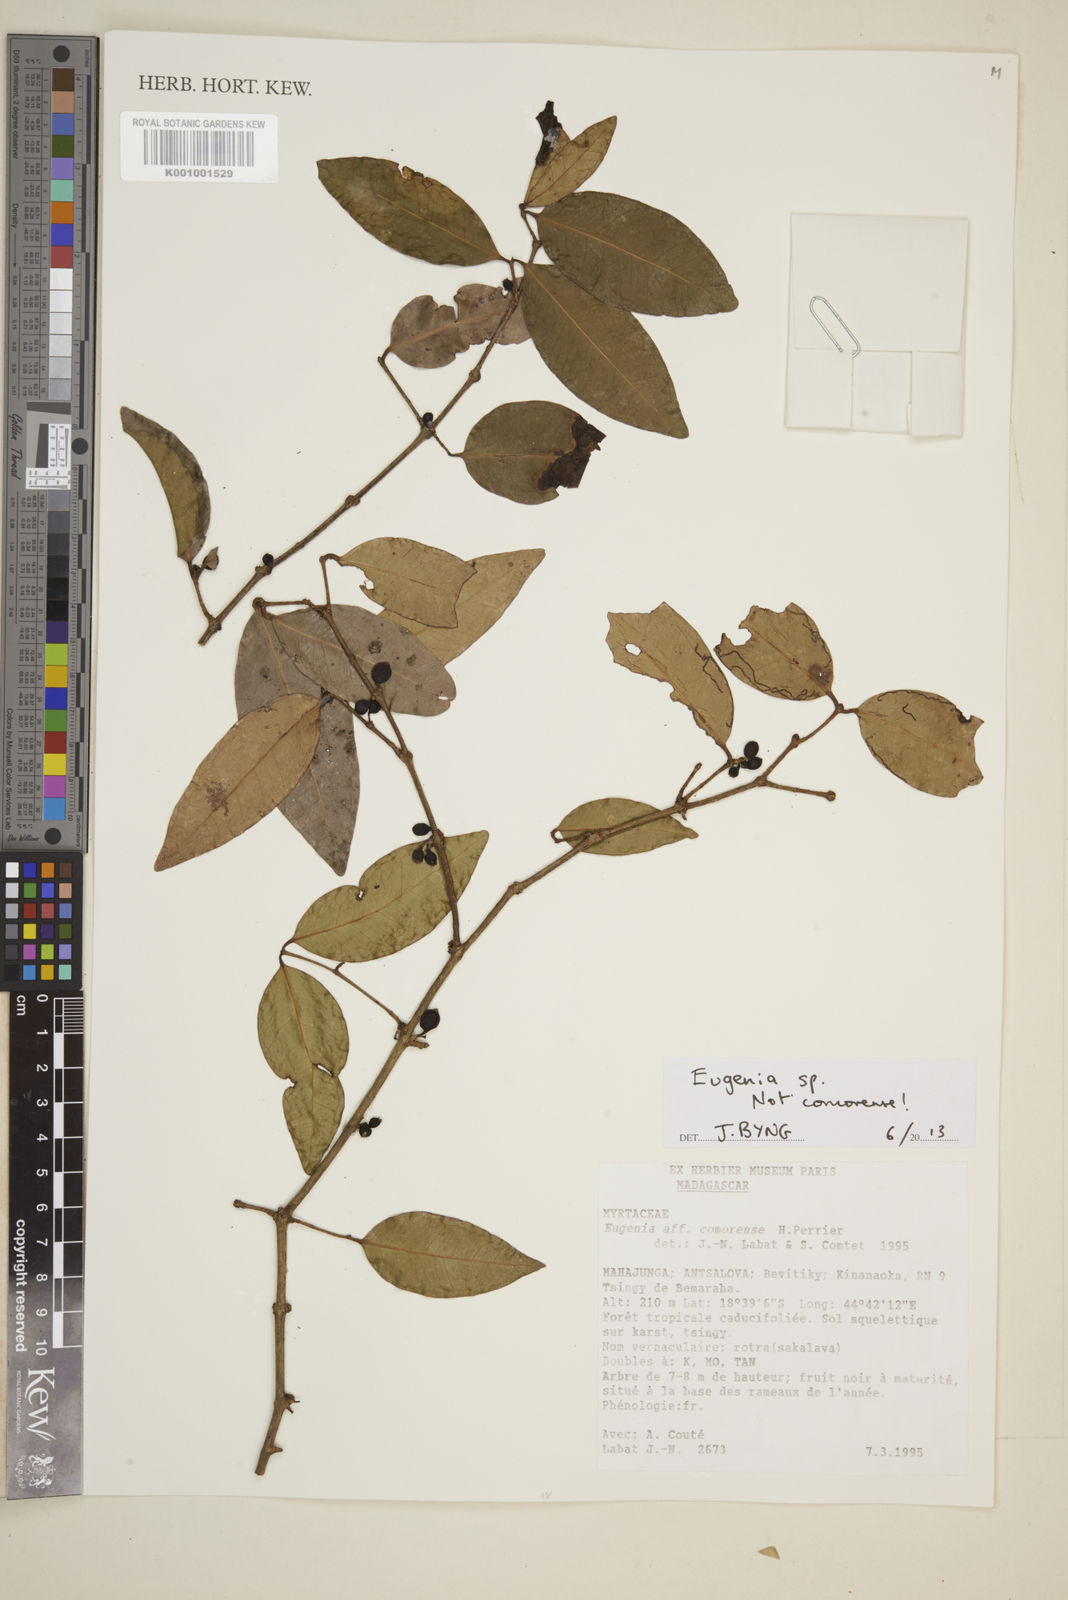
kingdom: Plantae
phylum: Tracheophyta
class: Magnoliopsida
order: Myrtales
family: Myrtaceae
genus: Eugenia
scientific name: Eugenia
